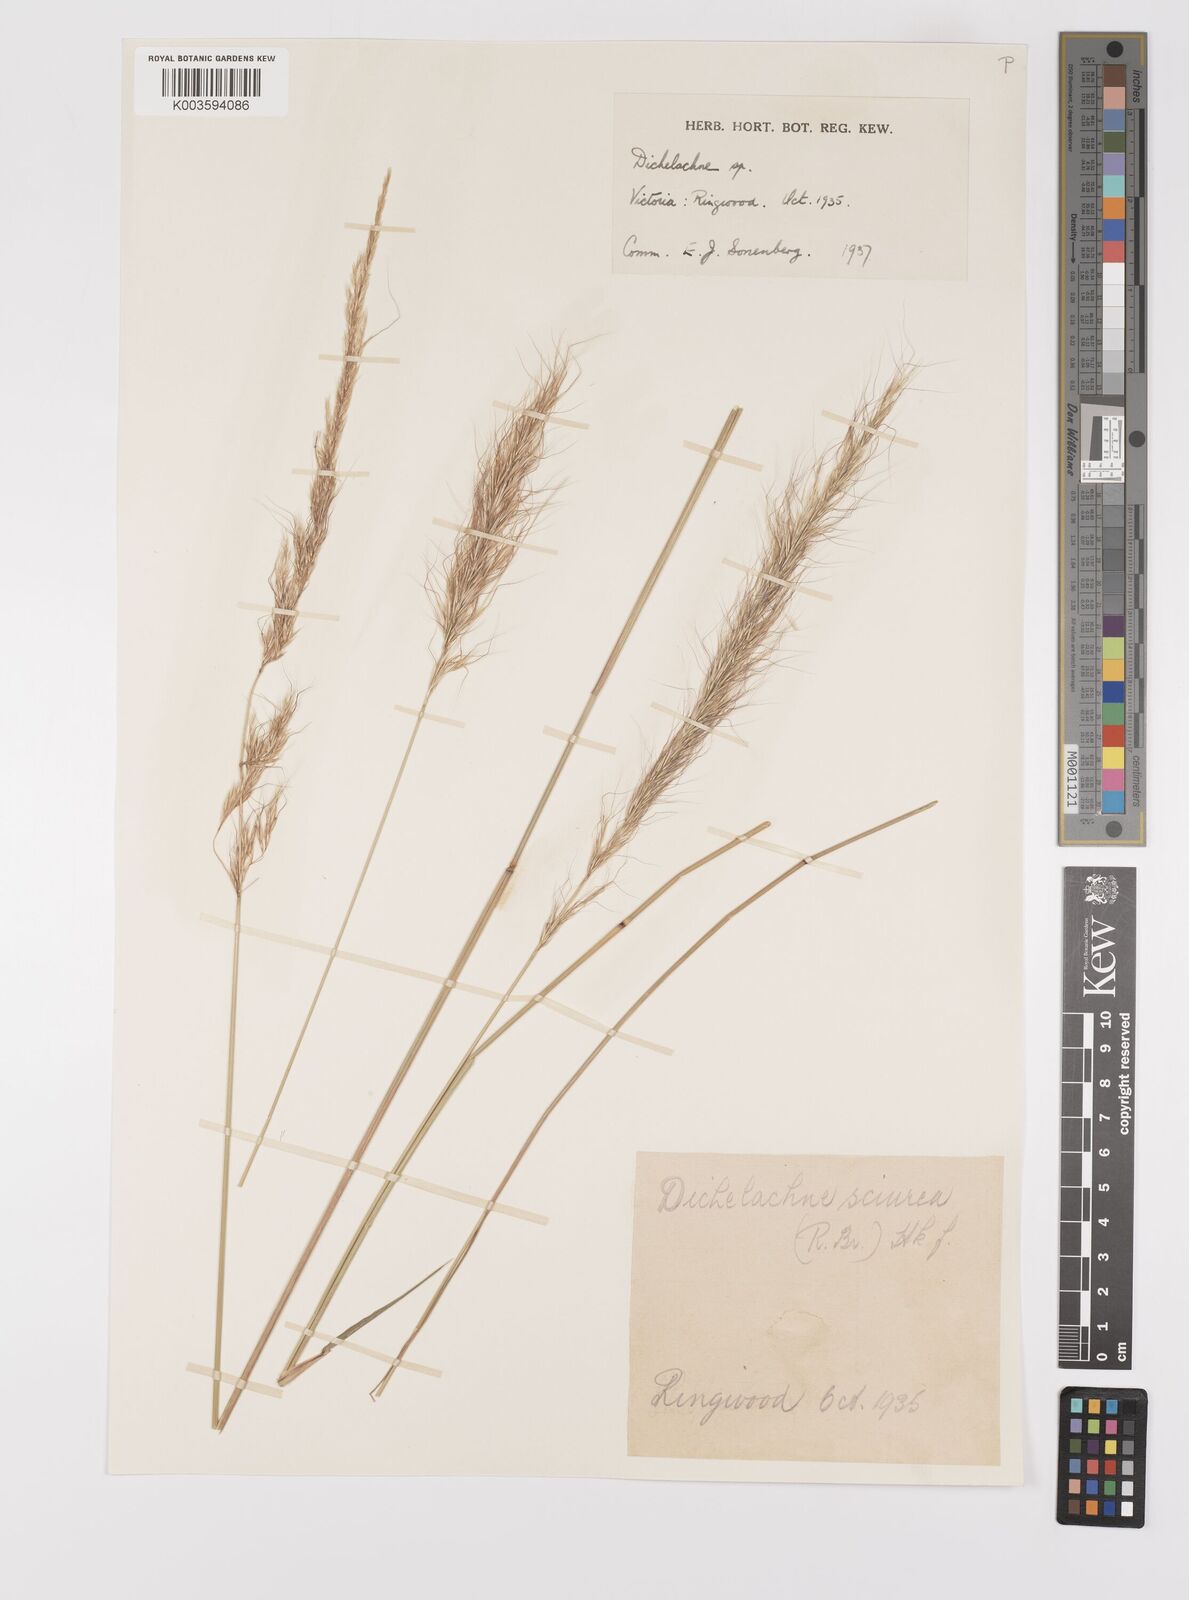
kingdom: Plantae
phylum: Tracheophyta
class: Liliopsida
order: Poales
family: Poaceae
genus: Dichelachne
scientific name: Dichelachne rara
